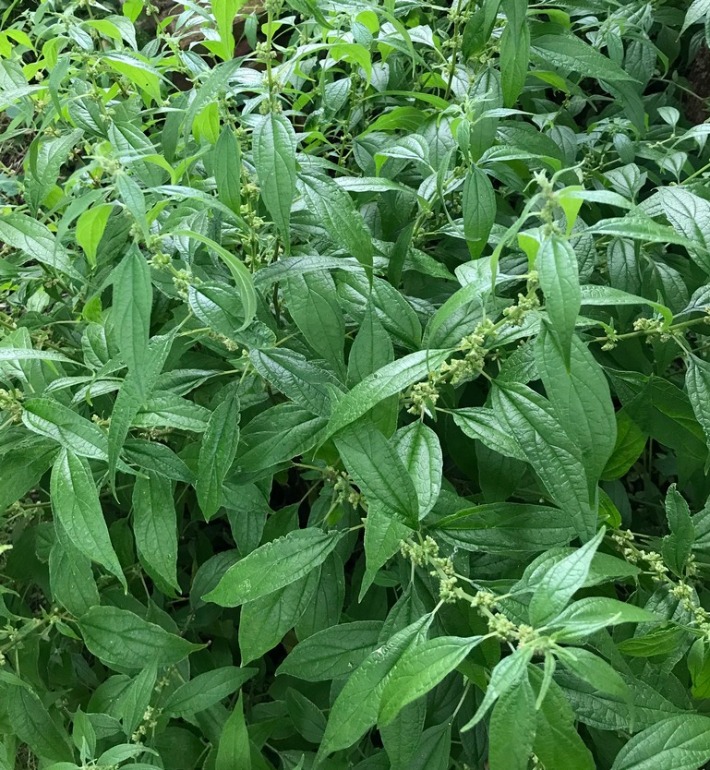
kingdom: Plantae
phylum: Tracheophyta
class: Magnoliopsida
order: Rosales
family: Urticaceae
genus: Parietaria
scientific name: Parietaria officinalis
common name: Almindelig springknap
